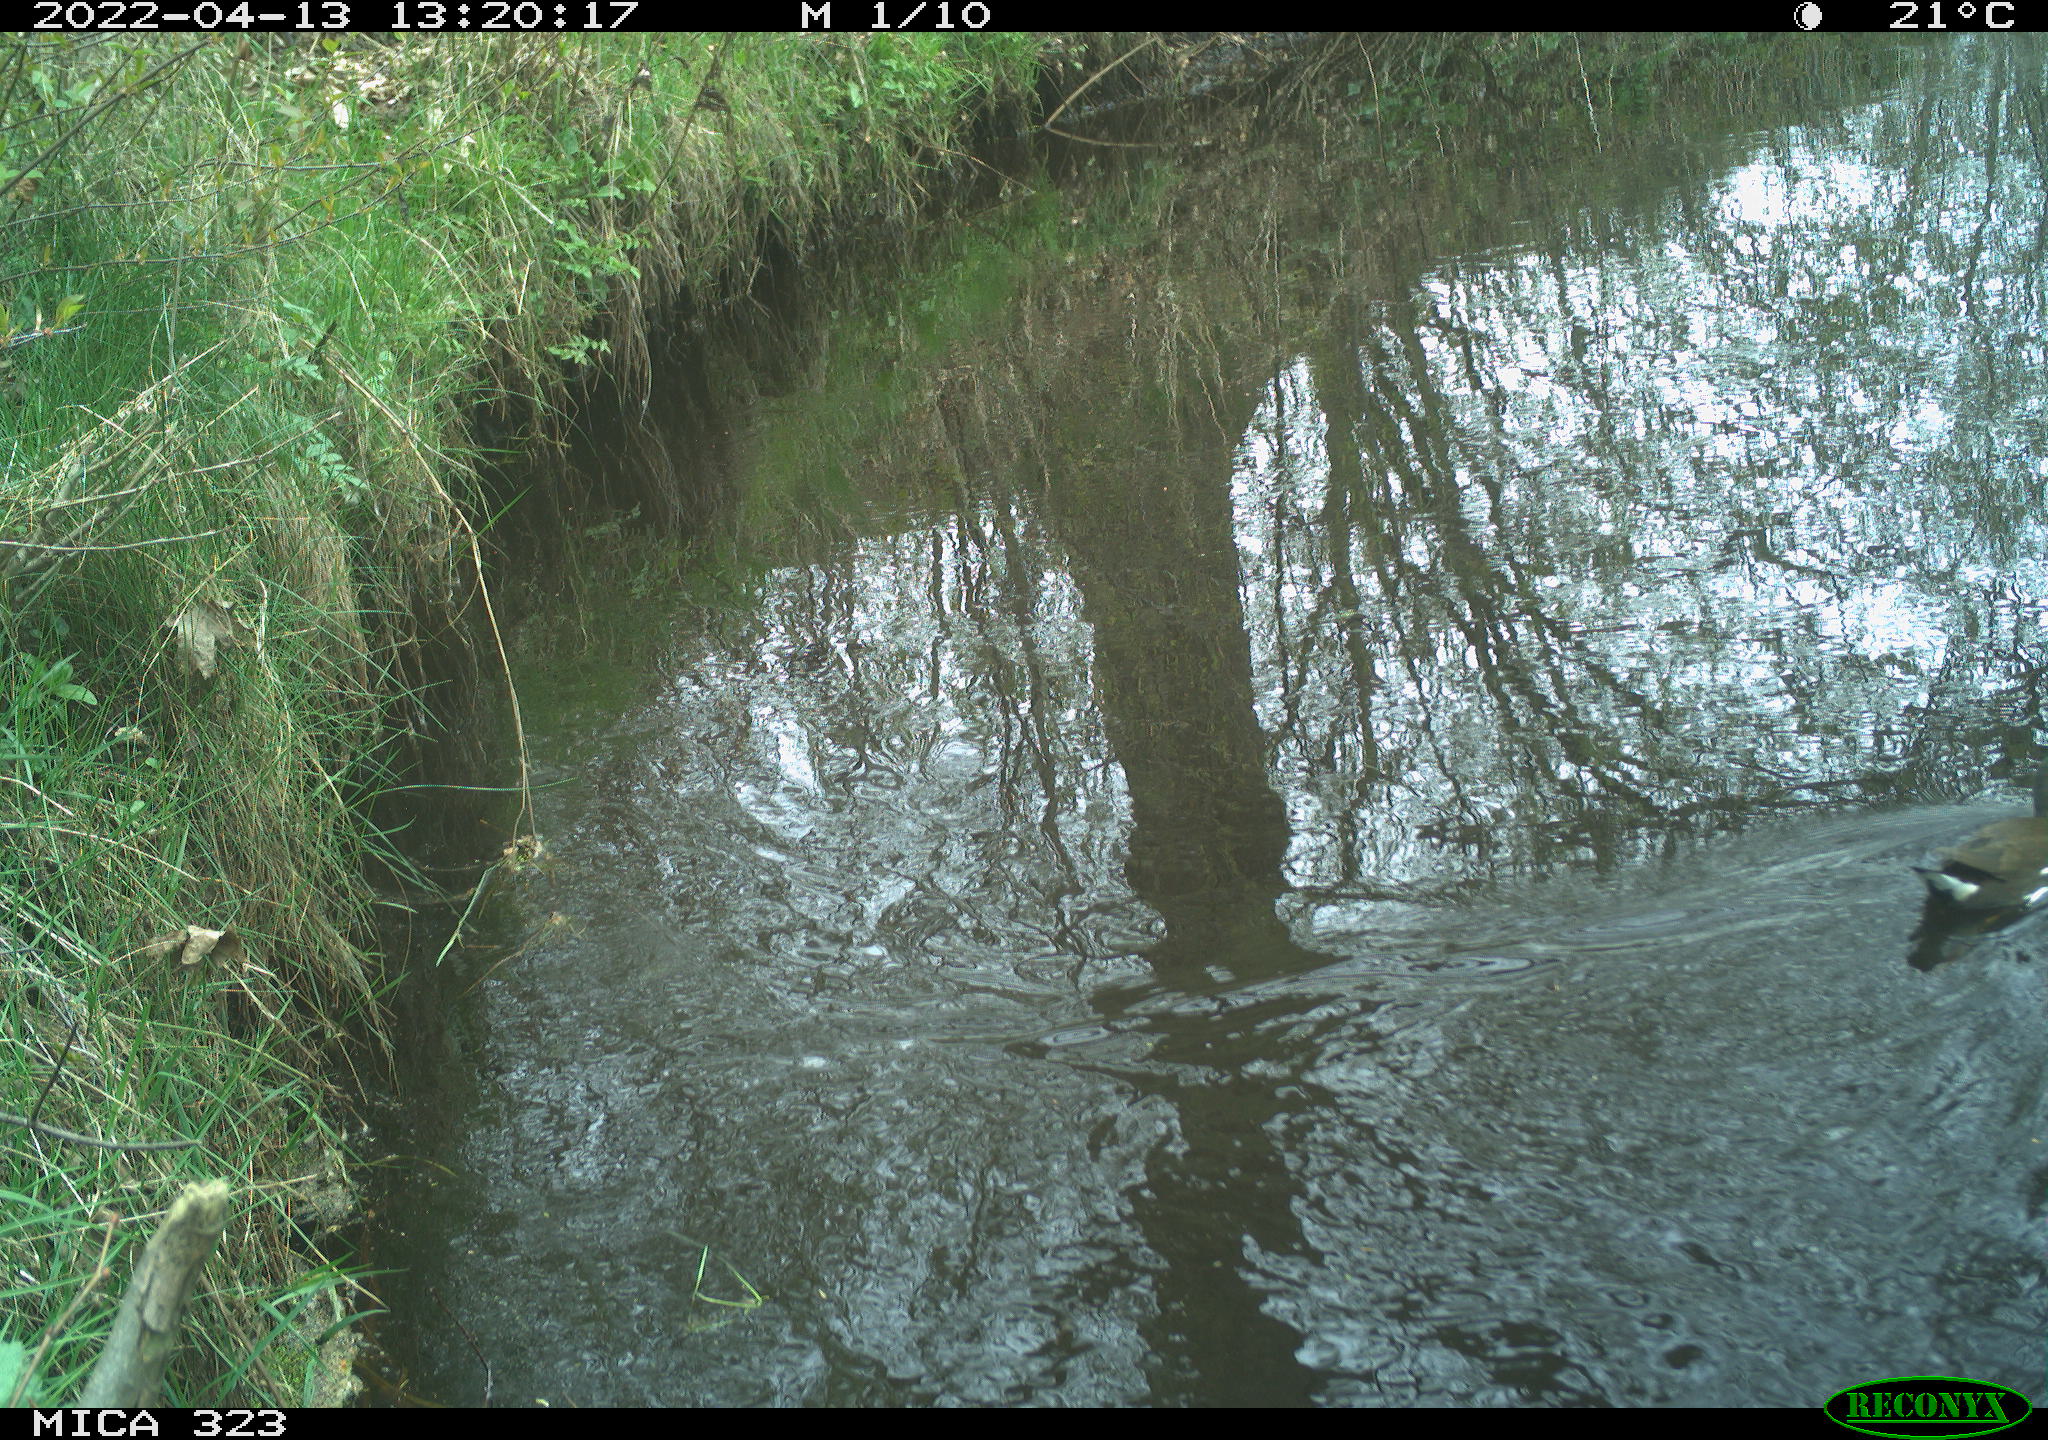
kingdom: Animalia
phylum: Chordata
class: Aves
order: Gruiformes
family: Rallidae
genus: Gallinula
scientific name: Gallinula chloropus
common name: Common moorhen
